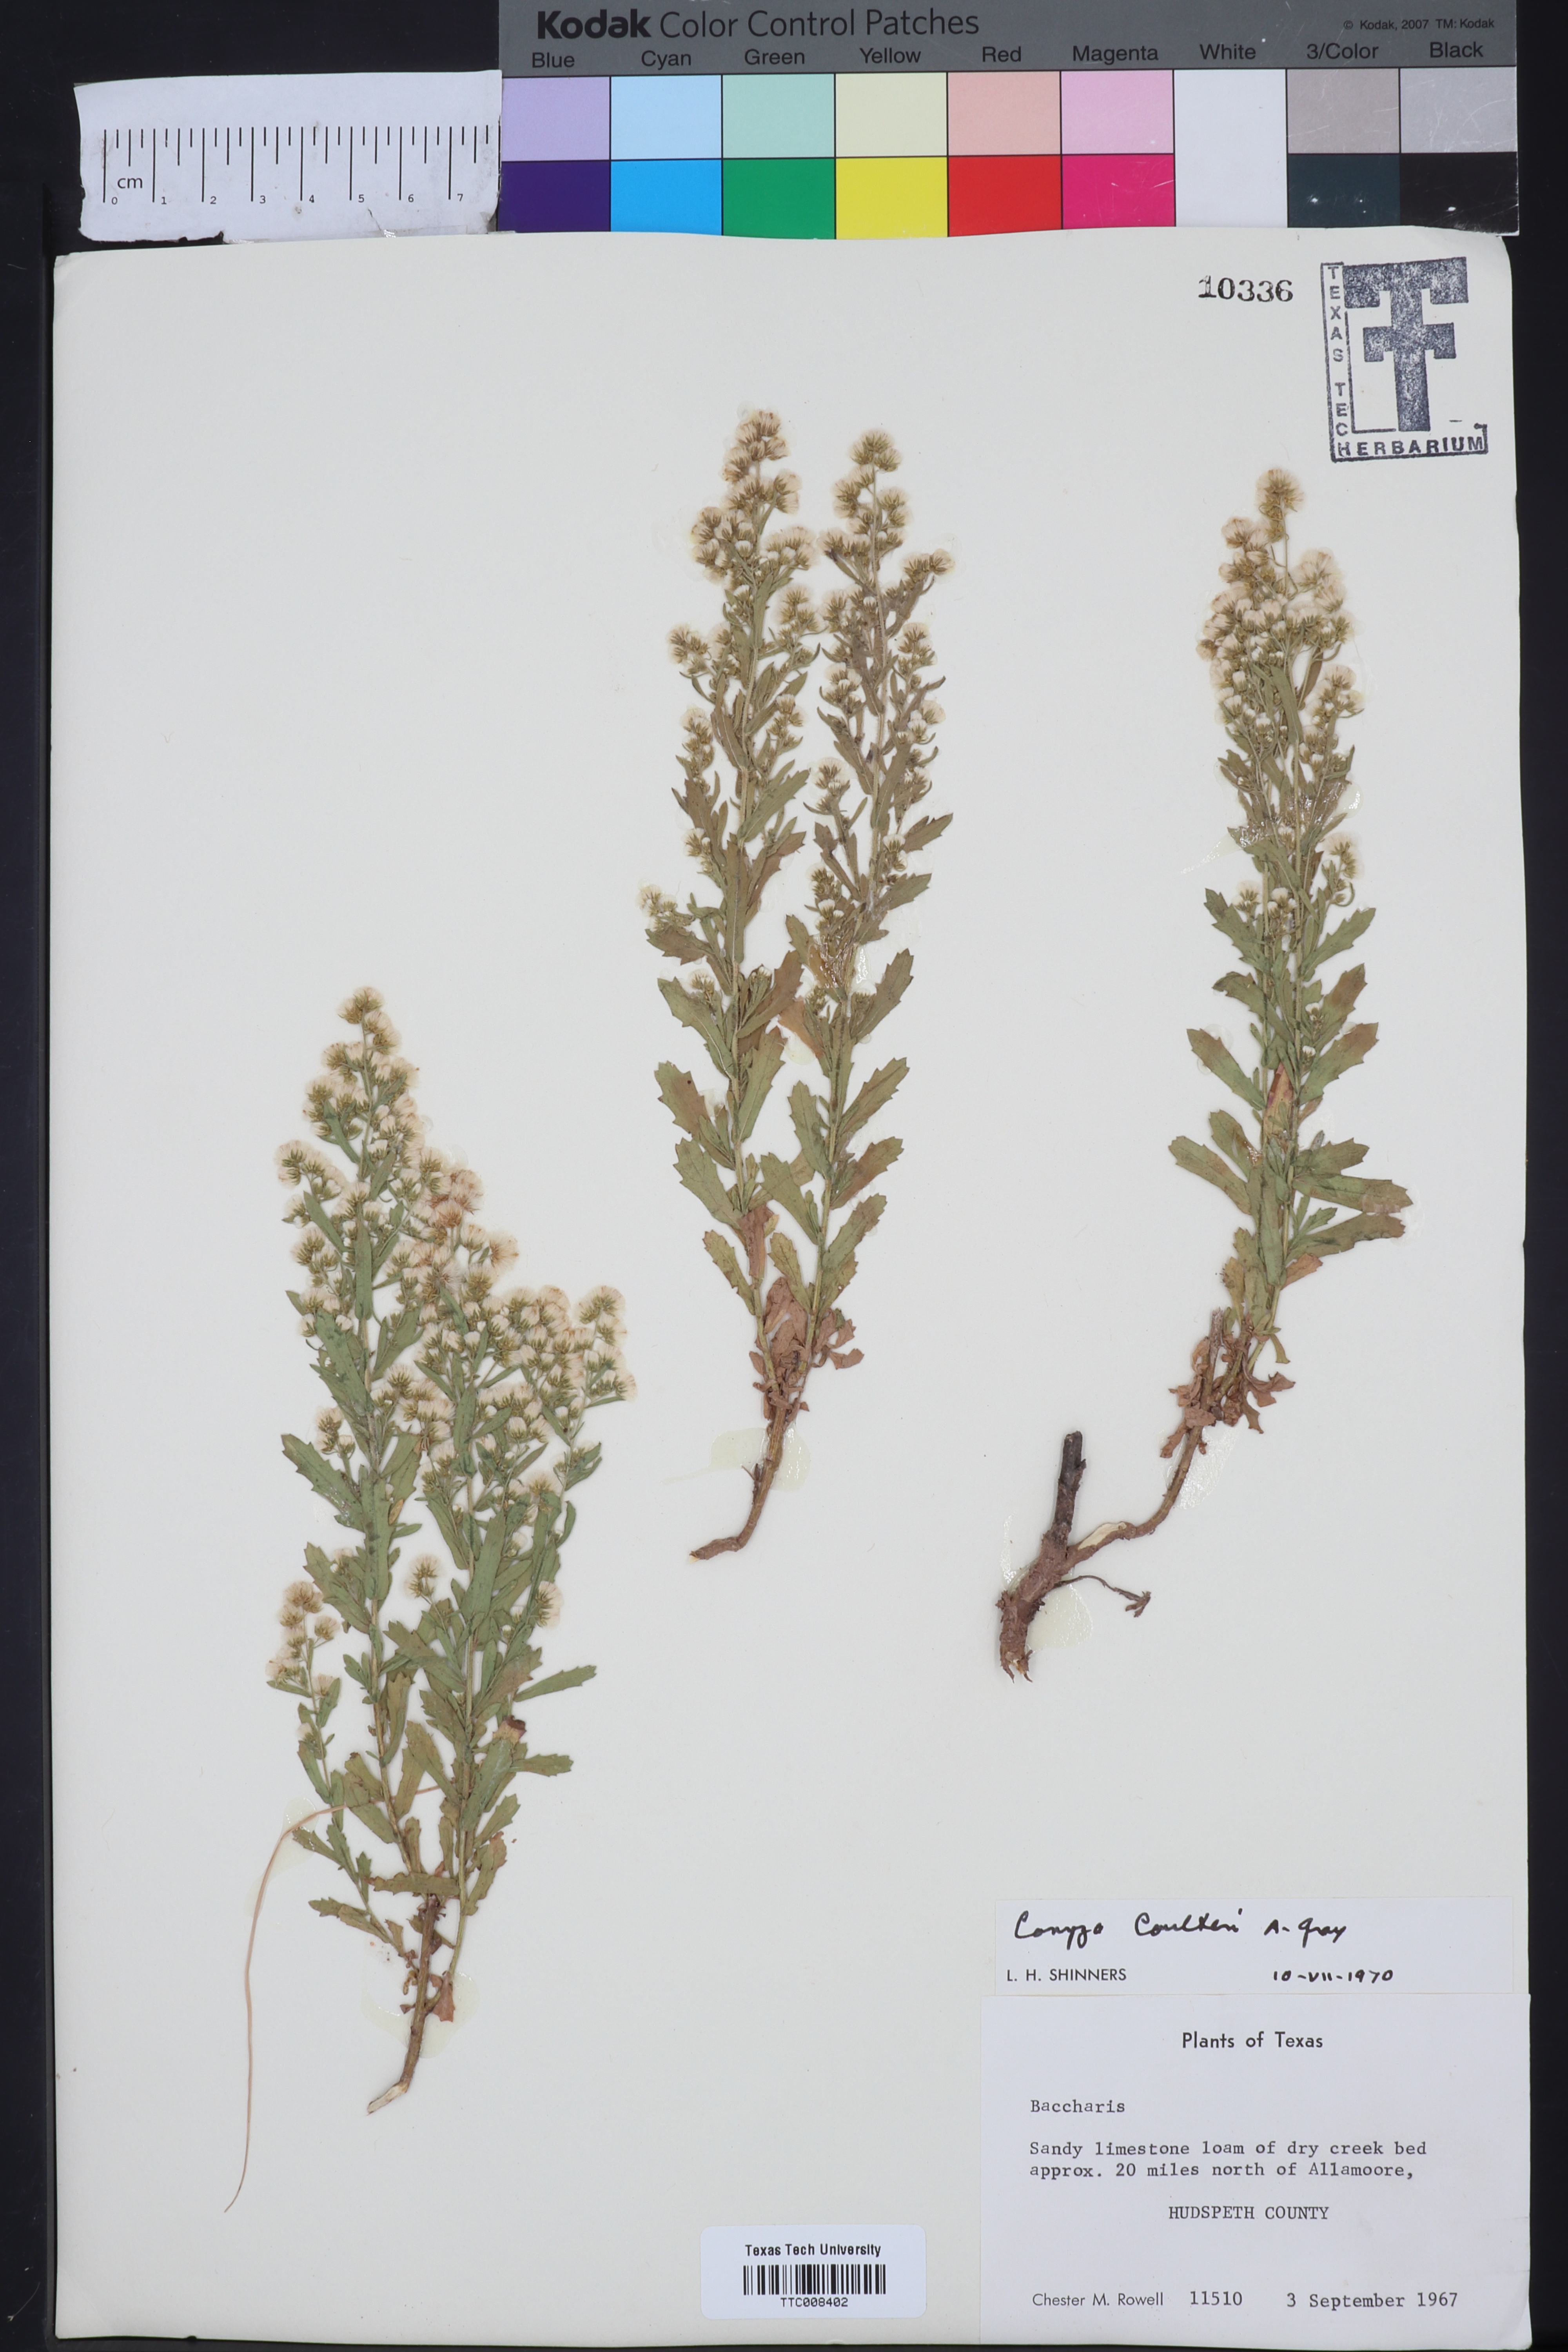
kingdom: Plantae
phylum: Tracheophyta
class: Magnoliopsida
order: Asterales
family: Asteraceae
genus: Laennecia
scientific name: Laennecia coulteri
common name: Coulter's woolwort
